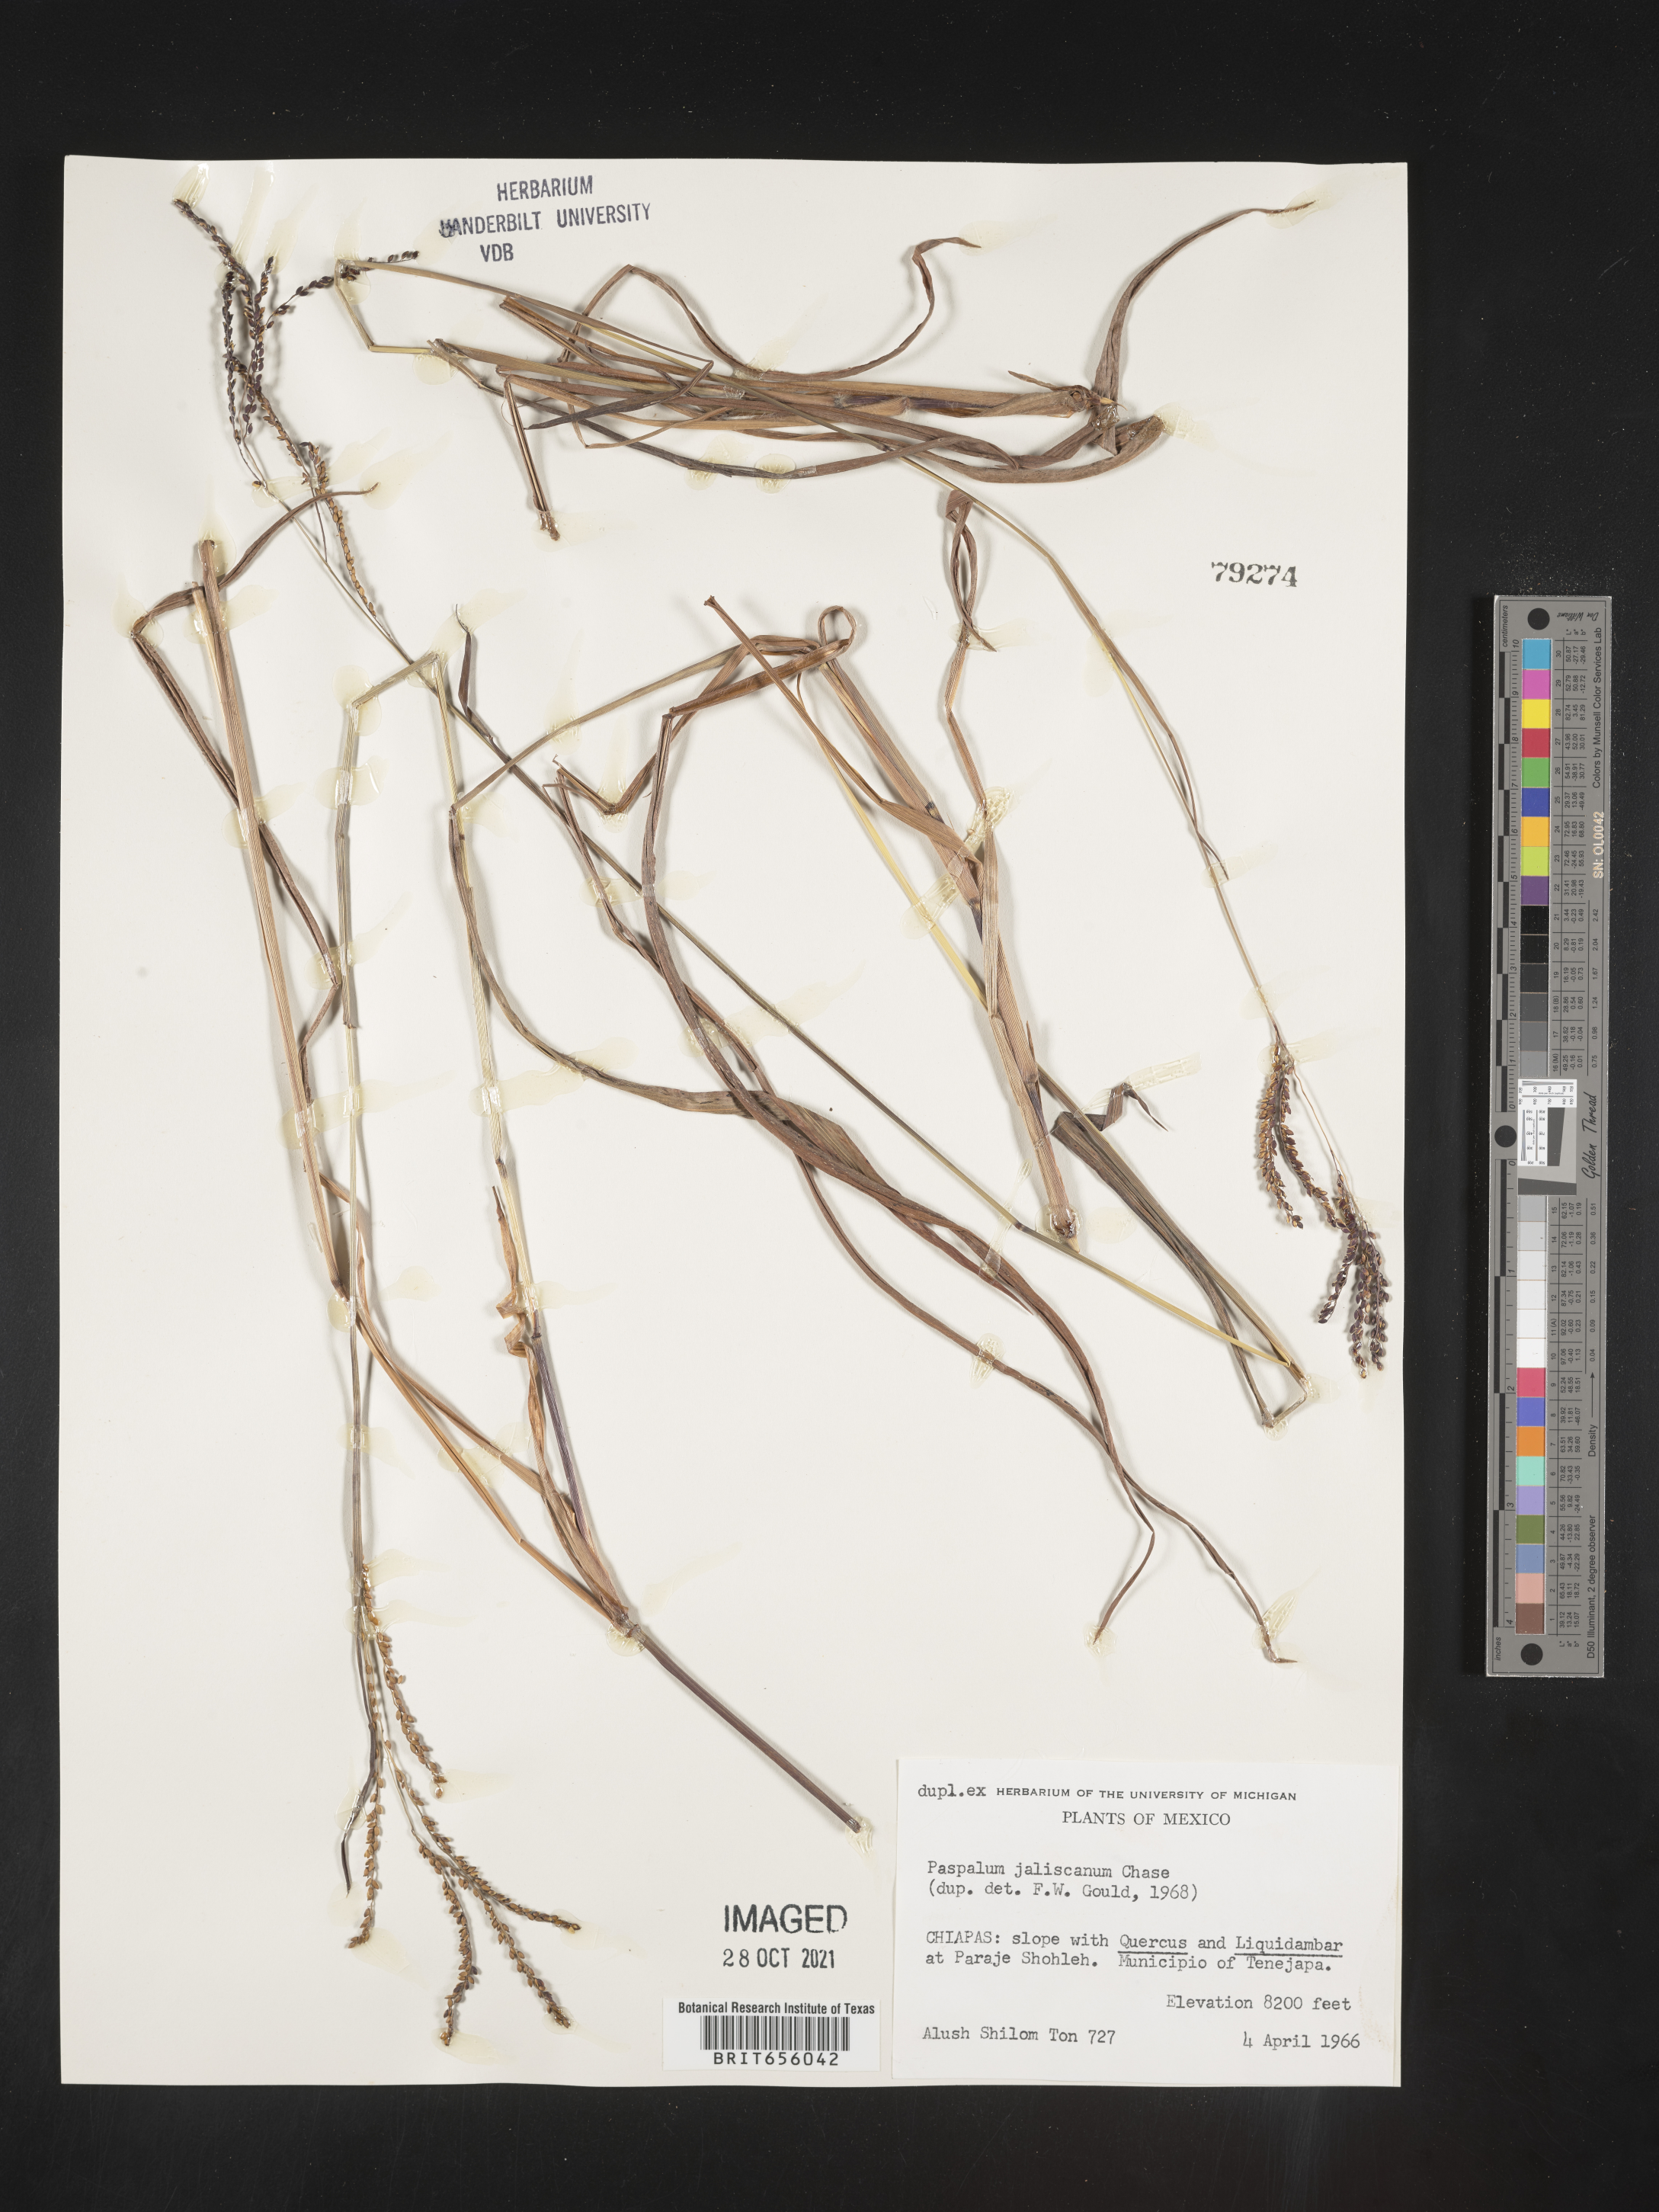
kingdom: Plantae
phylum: Tracheophyta
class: Liliopsida
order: Poales
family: Poaceae
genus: Paspalum
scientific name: Paspalum
